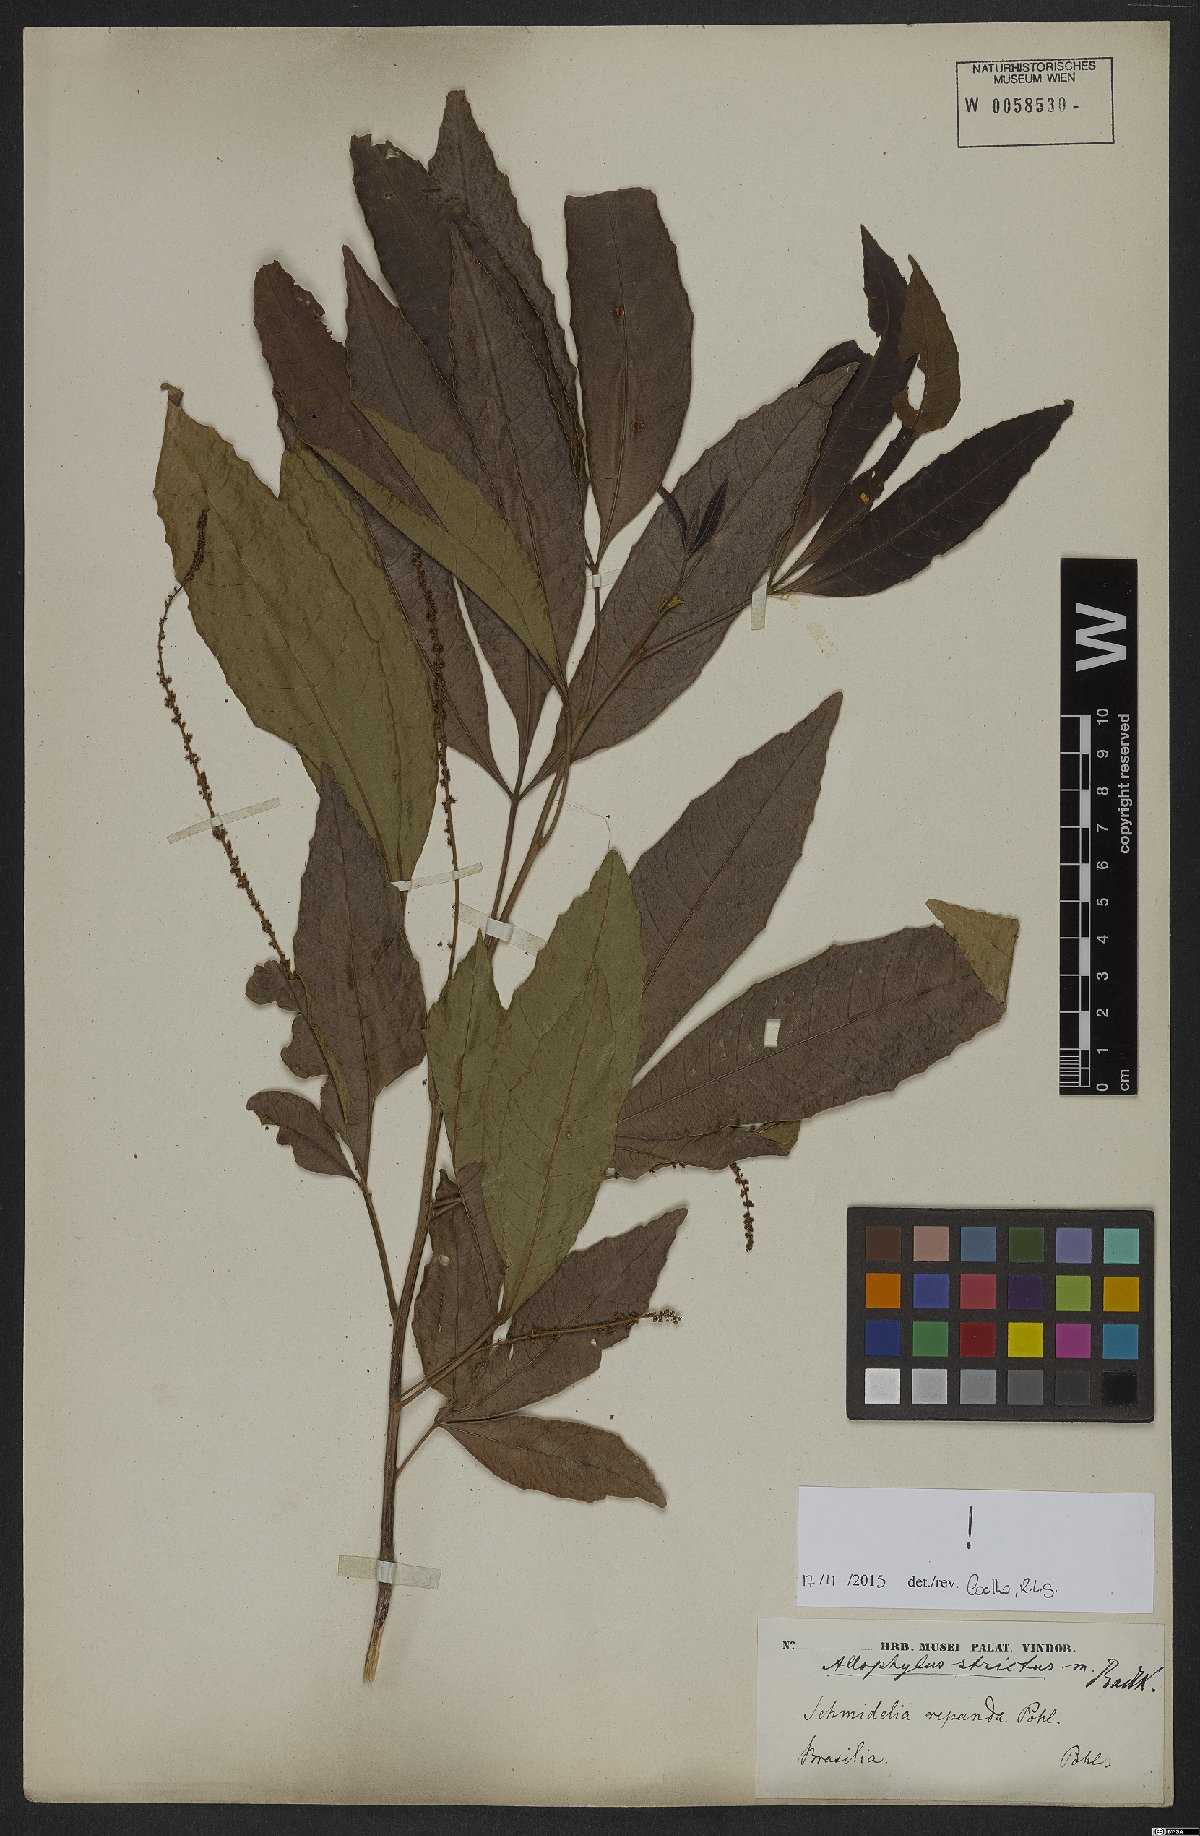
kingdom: Plantae
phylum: Tracheophyta
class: Magnoliopsida
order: Sapindales
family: Sapindaceae
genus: Allophylus
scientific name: Allophylus strictus
